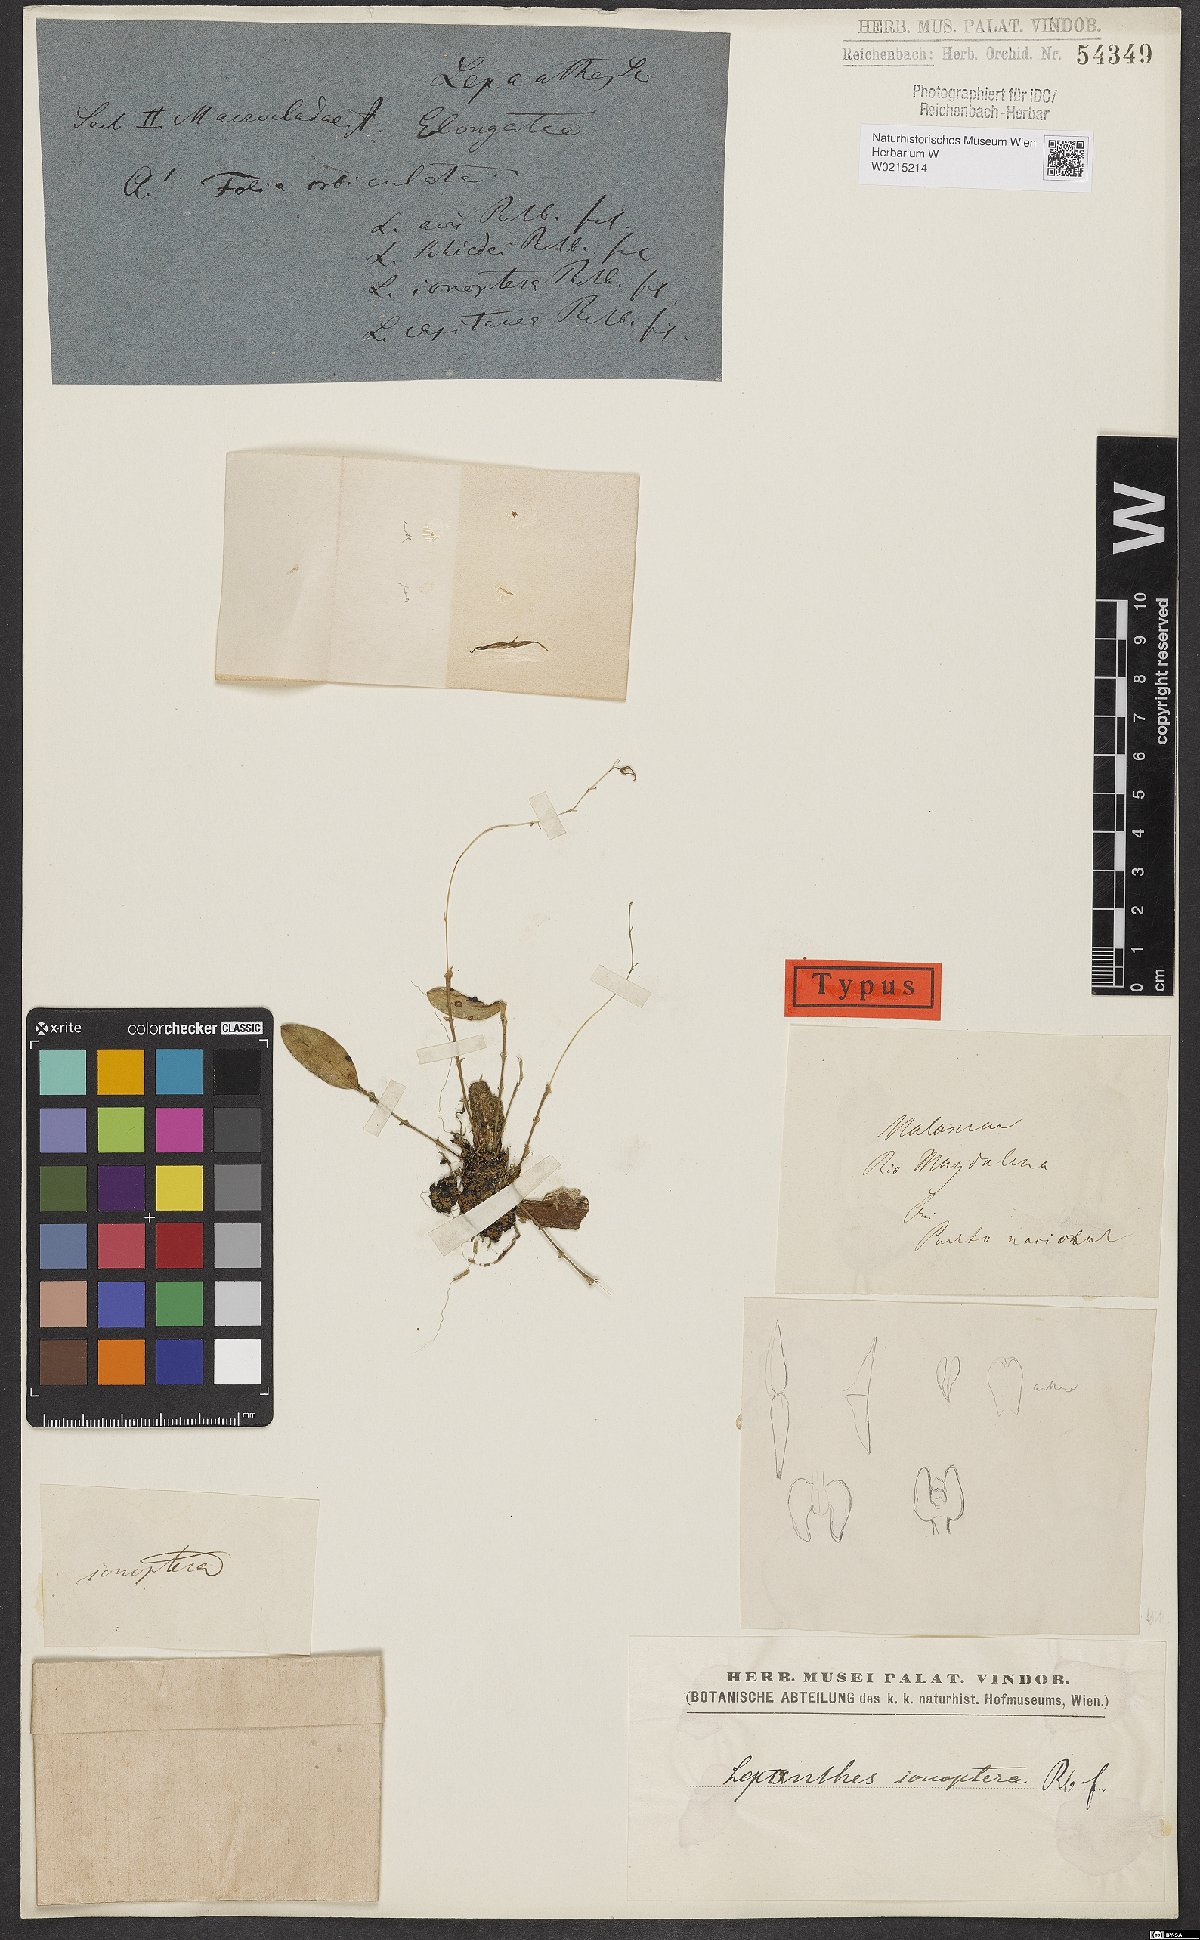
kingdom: Plantae
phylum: Tracheophyta
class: Liliopsida
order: Asparagales
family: Orchidaceae
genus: Lepanthes
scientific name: Lepanthes ionoptera
